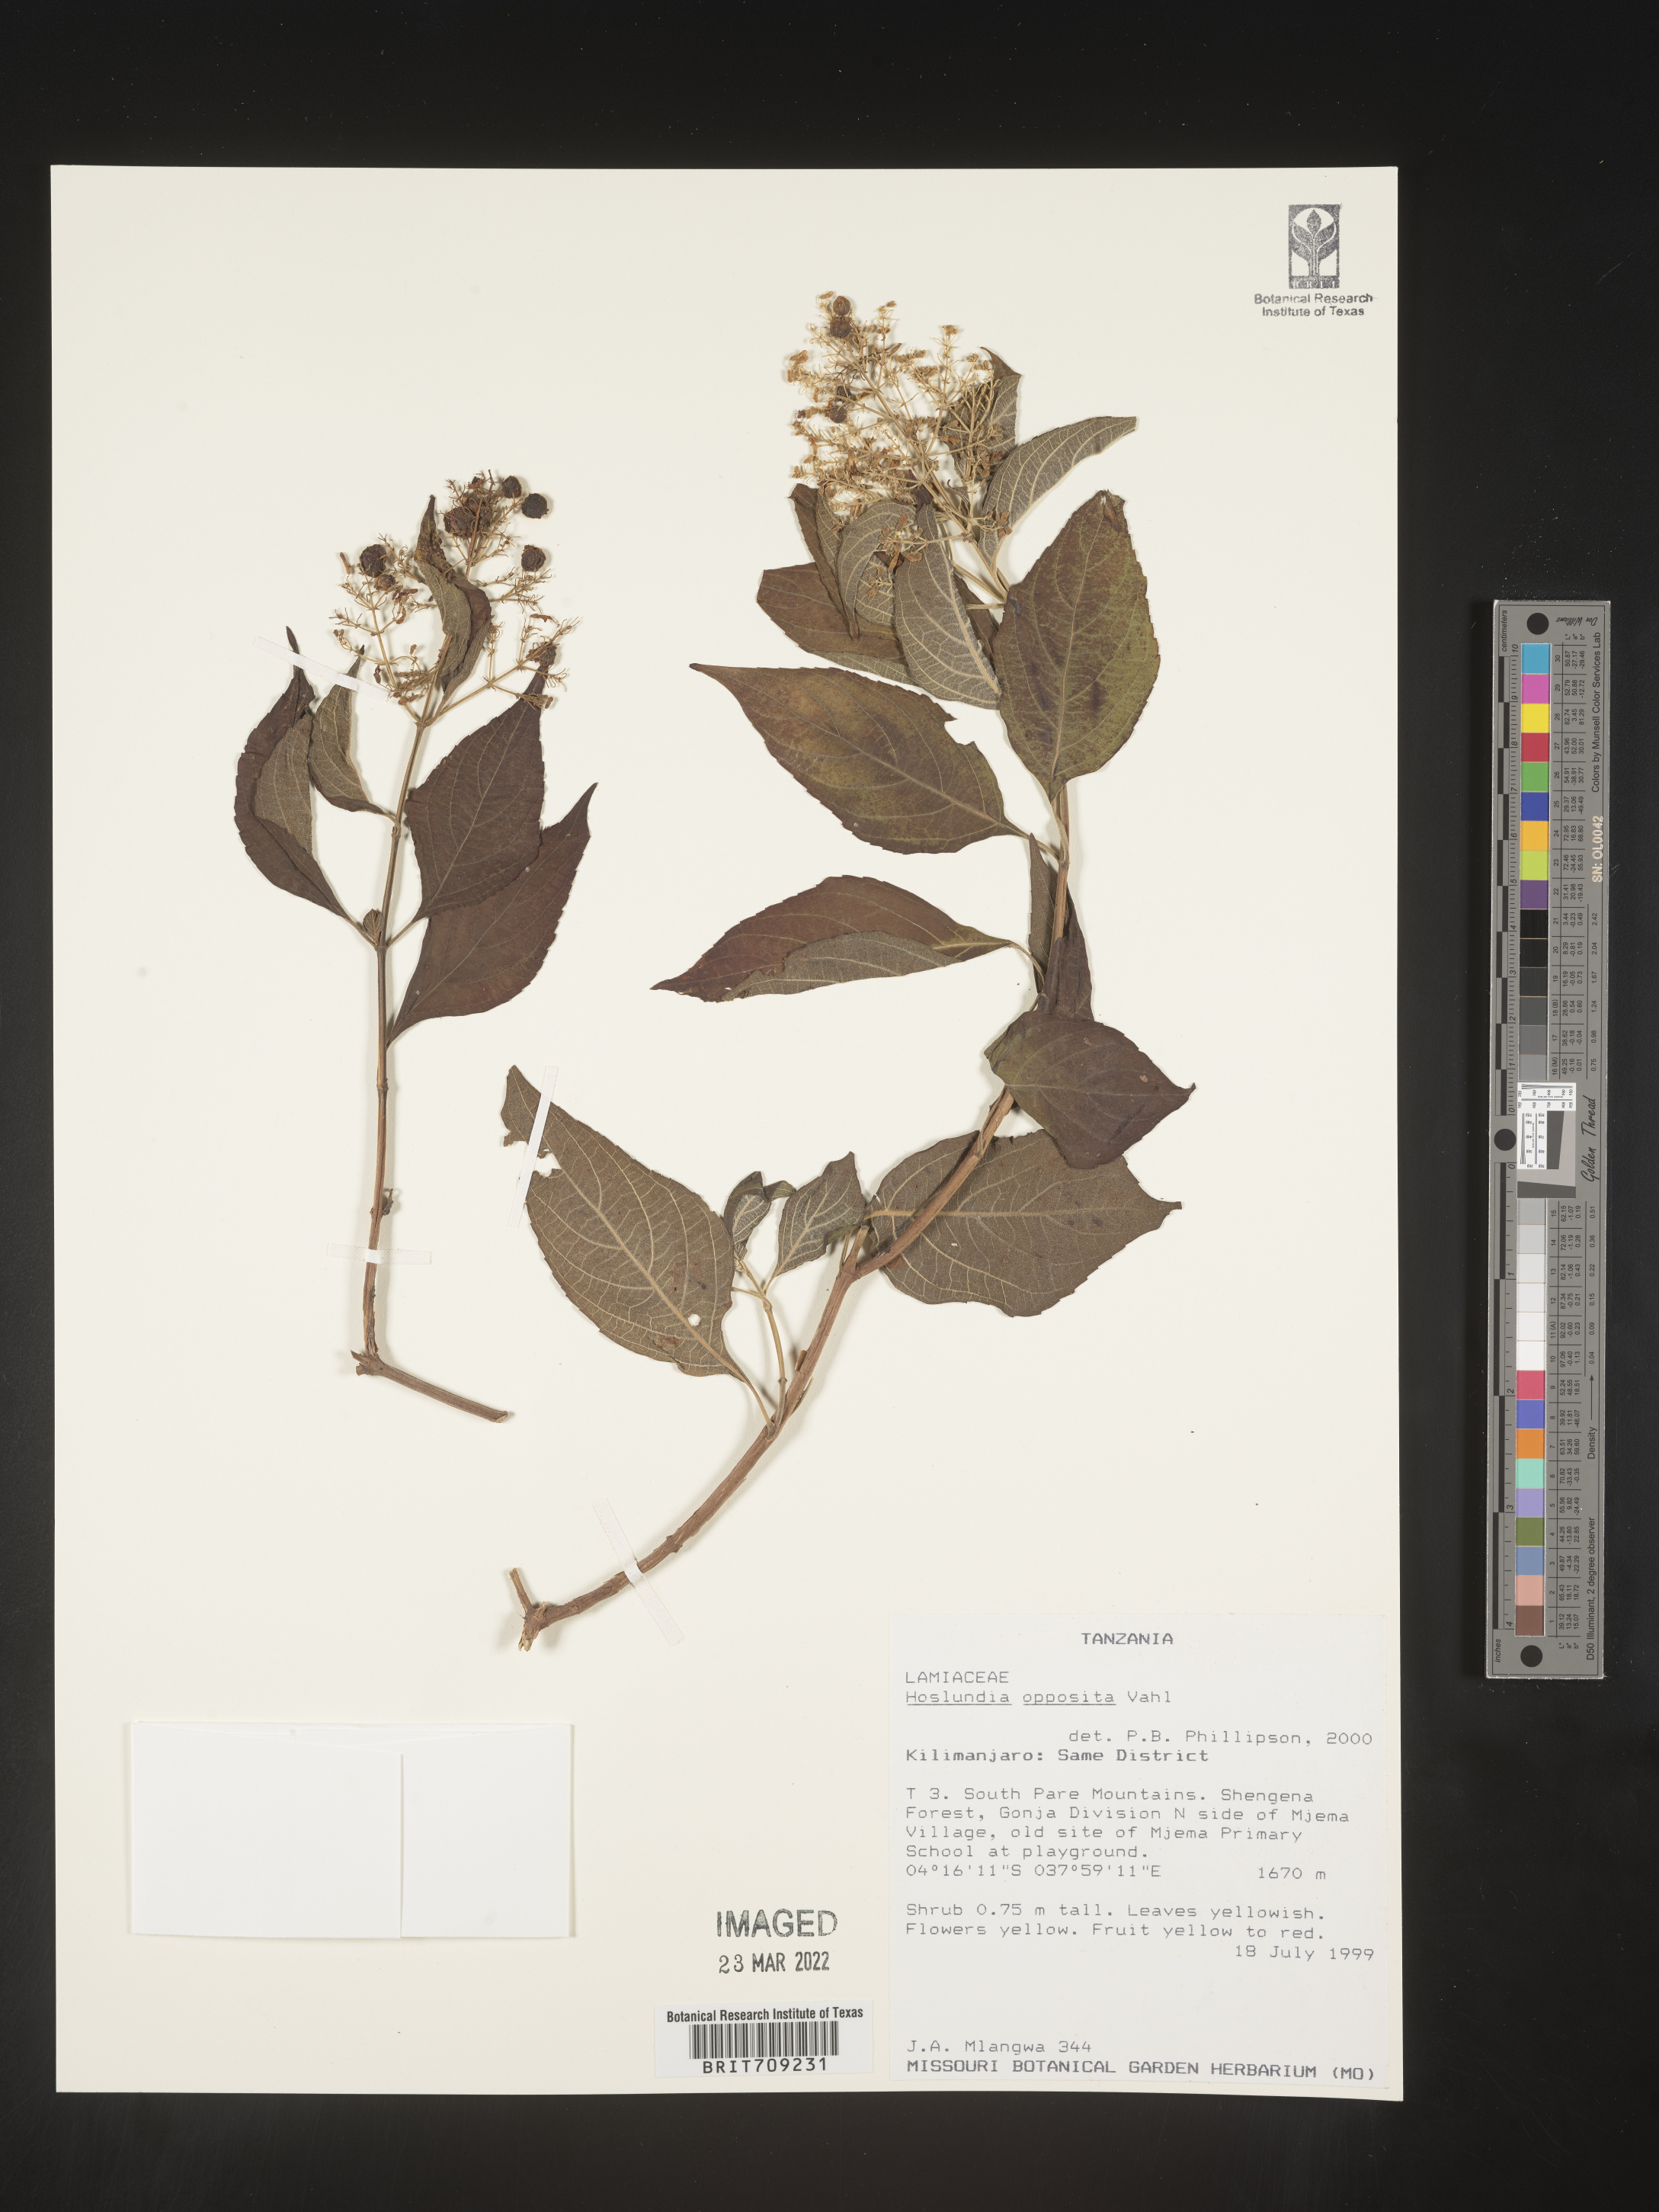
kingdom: Plantae
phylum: Tracheophyta
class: Magnoliopsida
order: Lamiales
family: Lamiaceae
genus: Hoslundia
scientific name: Hoslundia opposita
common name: Kamyuye
